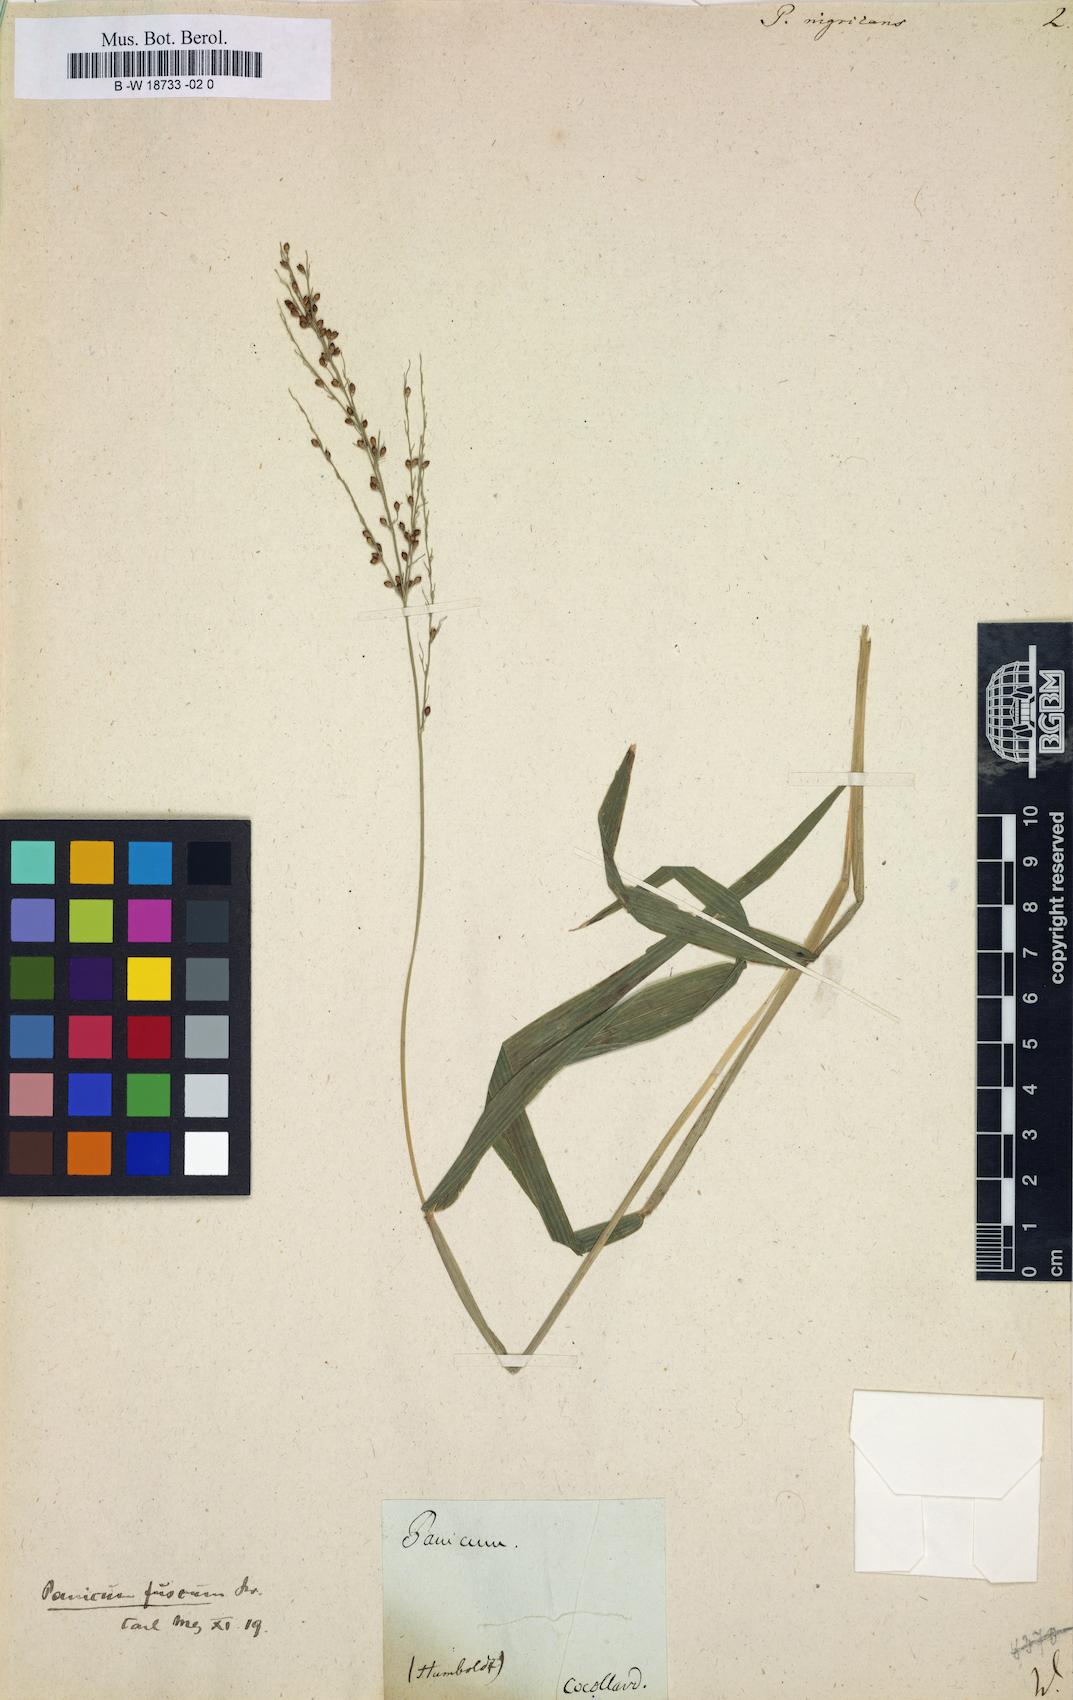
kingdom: Plantae
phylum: Tracheophyta
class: Liliopsida
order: Poales
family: Poaceae
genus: Urochloa
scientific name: Urochloa fusca
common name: Browntop signal grass
